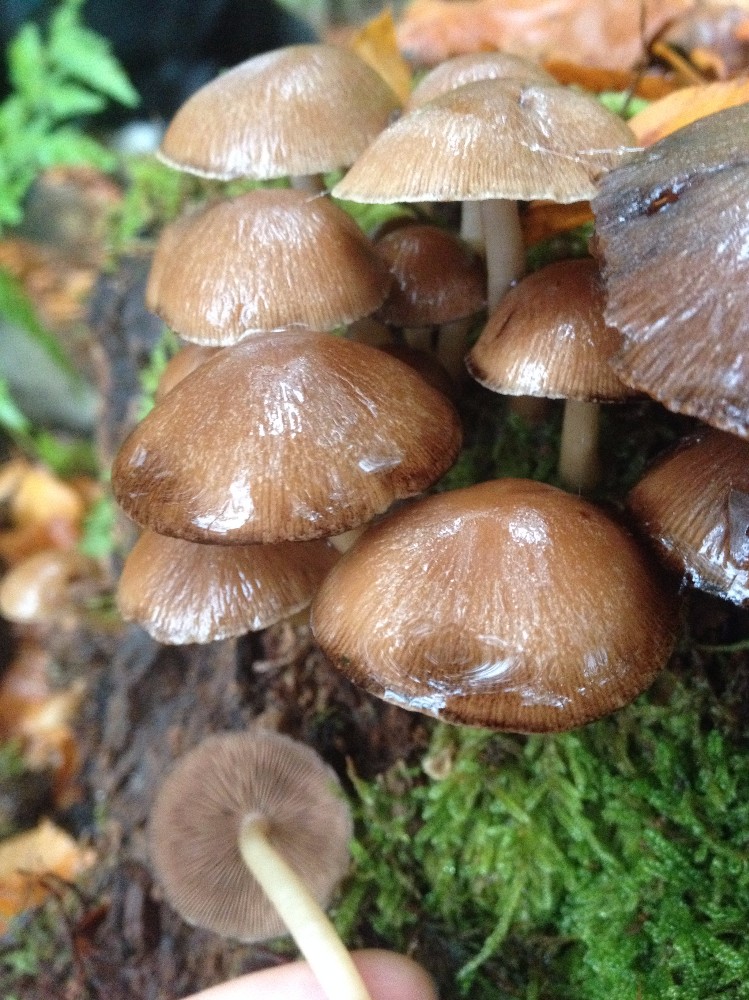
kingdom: Fungi
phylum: Basidiomycota
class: Agaricomycetes
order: Agaricales
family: Psathyrellaceae
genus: Psathyrella
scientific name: Psathyrella piluliformis
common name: lysstokket mørkhat
